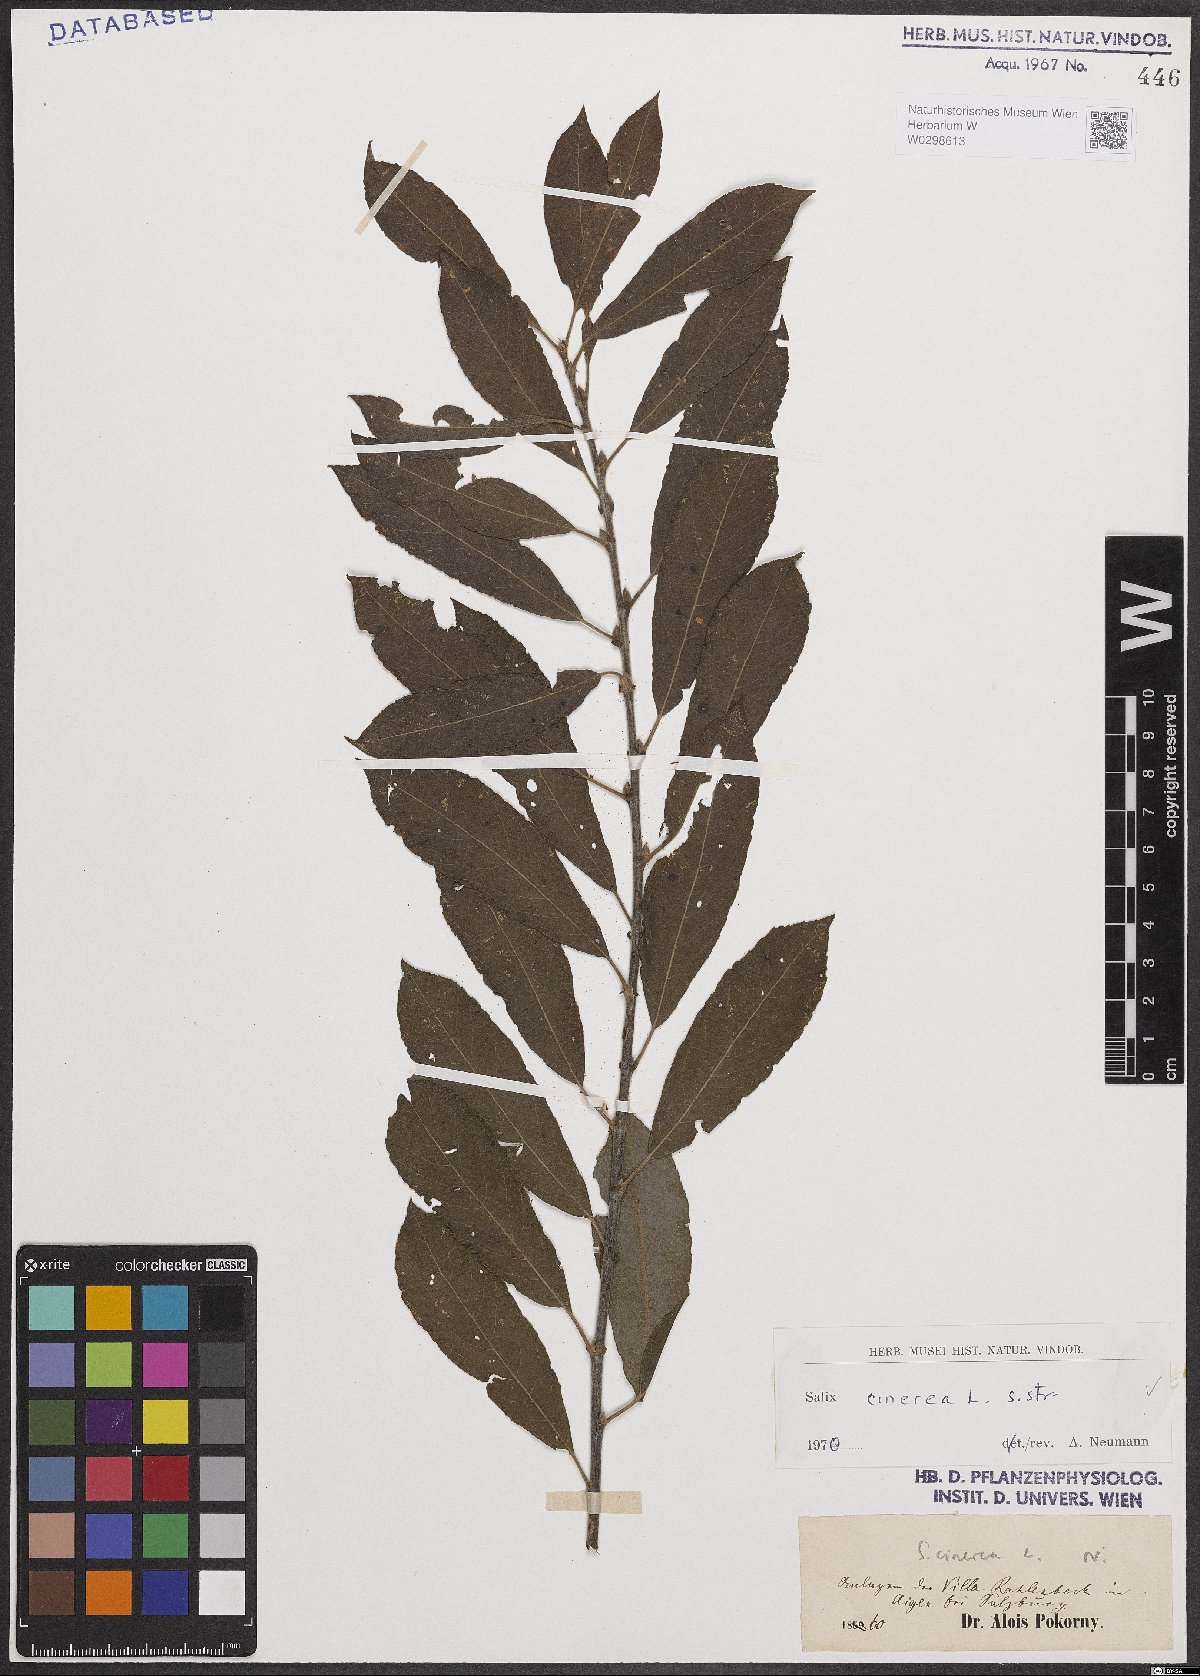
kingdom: Plantae
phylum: Tracheophyta
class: Magnoliopsida
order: Malpighiales
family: Salicaceae
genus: Salix
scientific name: Salix cinerea
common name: Common sallow
